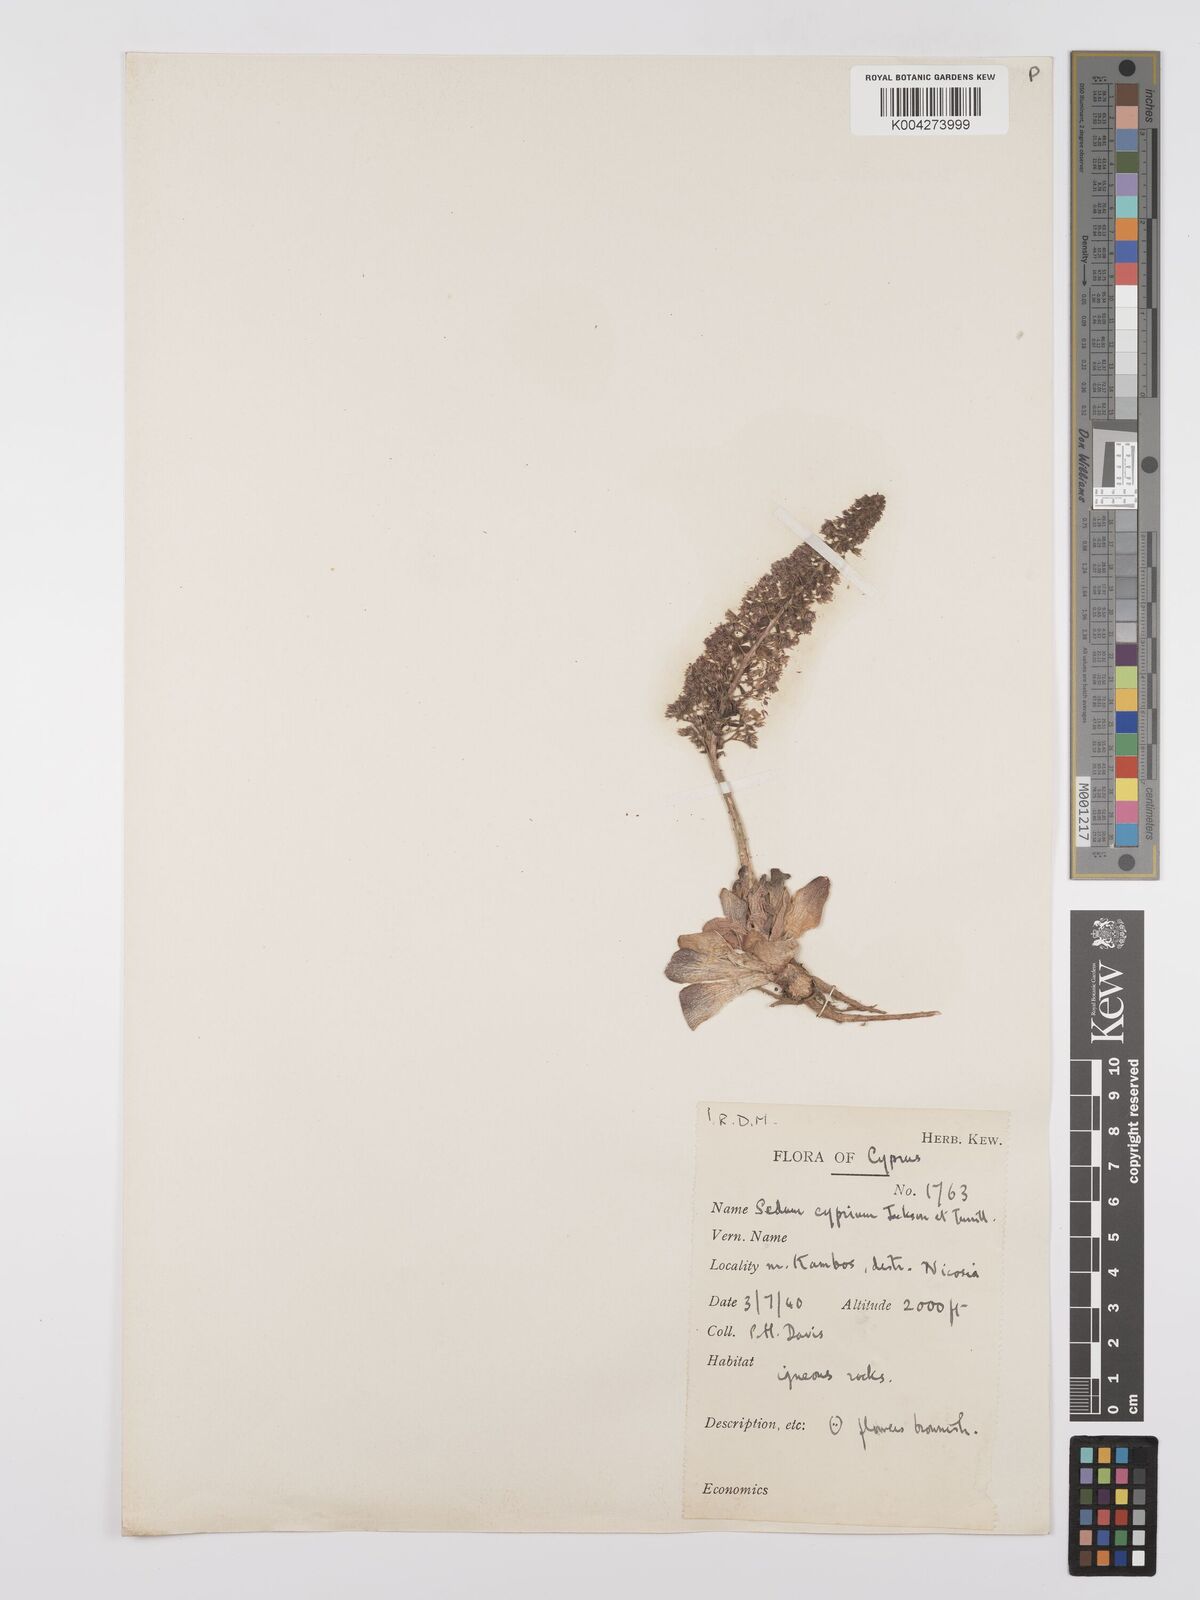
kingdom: Plantae
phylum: Tracheophyta
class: Magnoliopsida
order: Saxifragales
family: Crassulaceae
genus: Sedum
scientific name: Sedum cyprium
